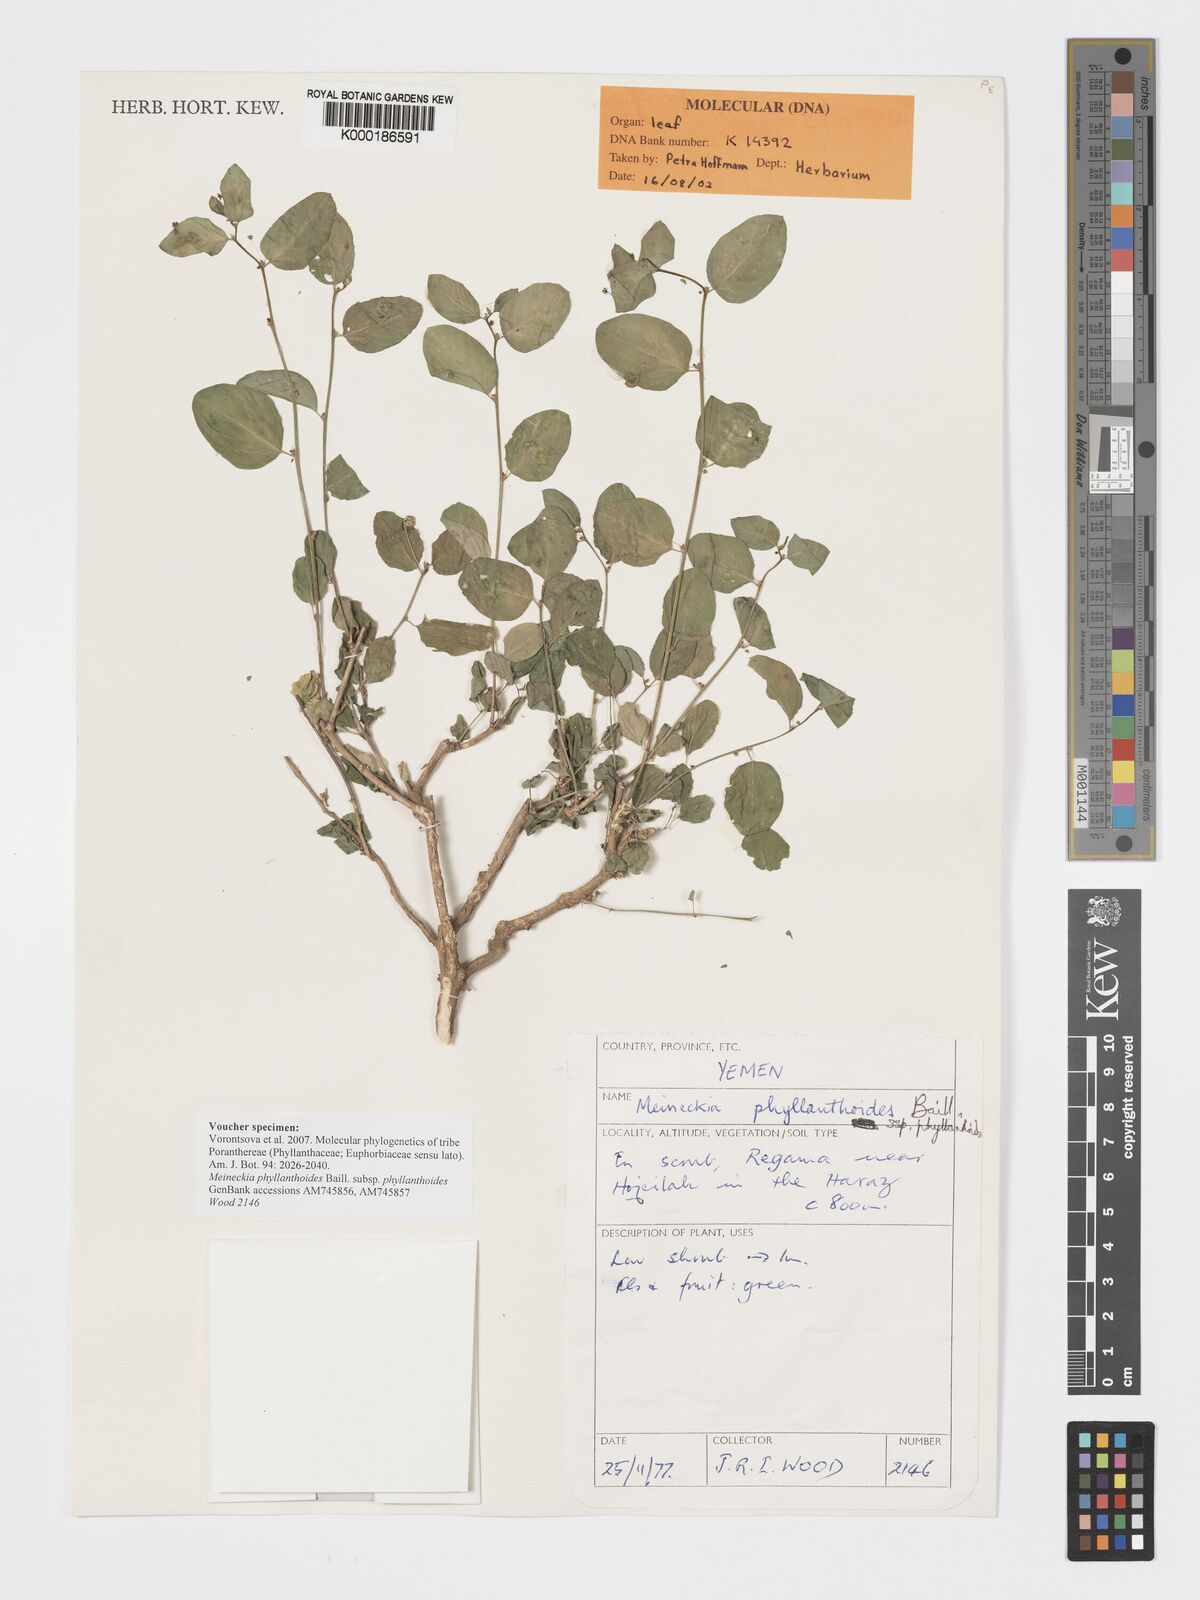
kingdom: Plantae
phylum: Tracheophyta
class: Magnoliopsida
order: Malpighiales
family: Phyllanthaceae
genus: Meineckia
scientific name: Meineckia phyllanthoides
